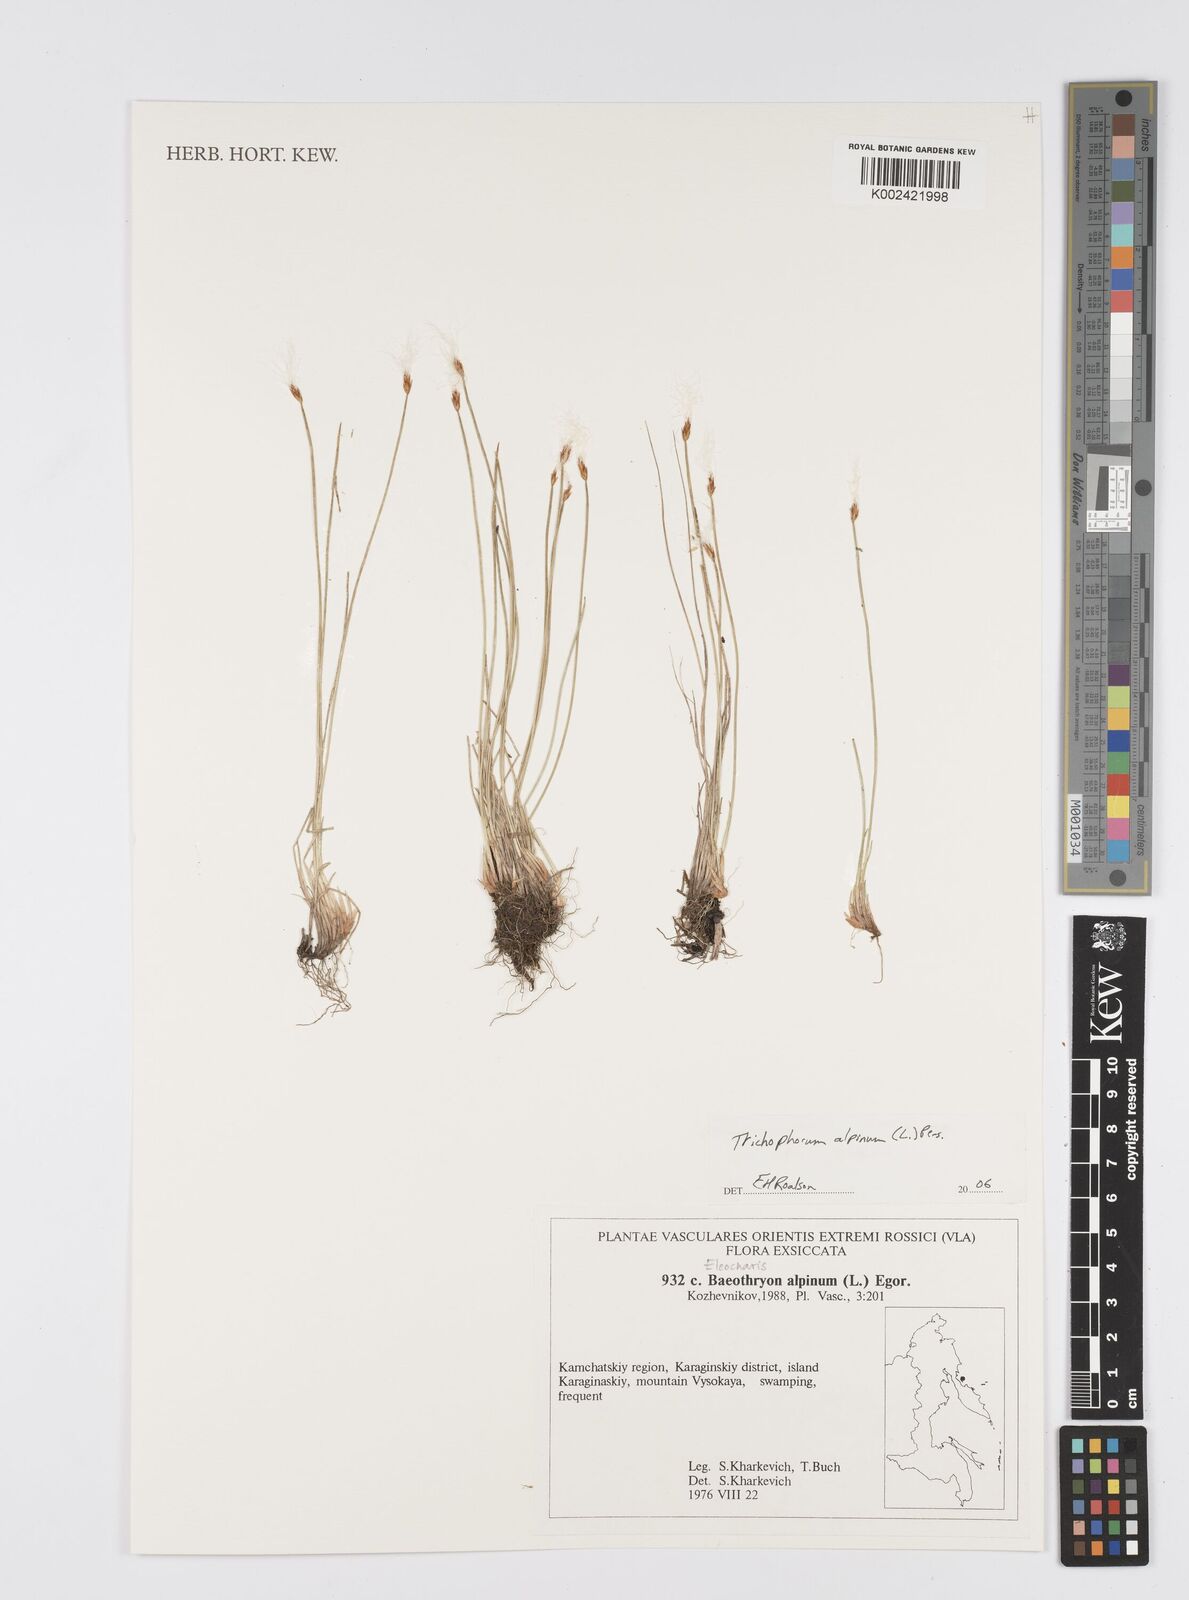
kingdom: Plantae
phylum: Tracheophyta
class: Liliopsida
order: Poales
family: Cyperaceae
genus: Eleocharis
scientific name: Eleocharis
